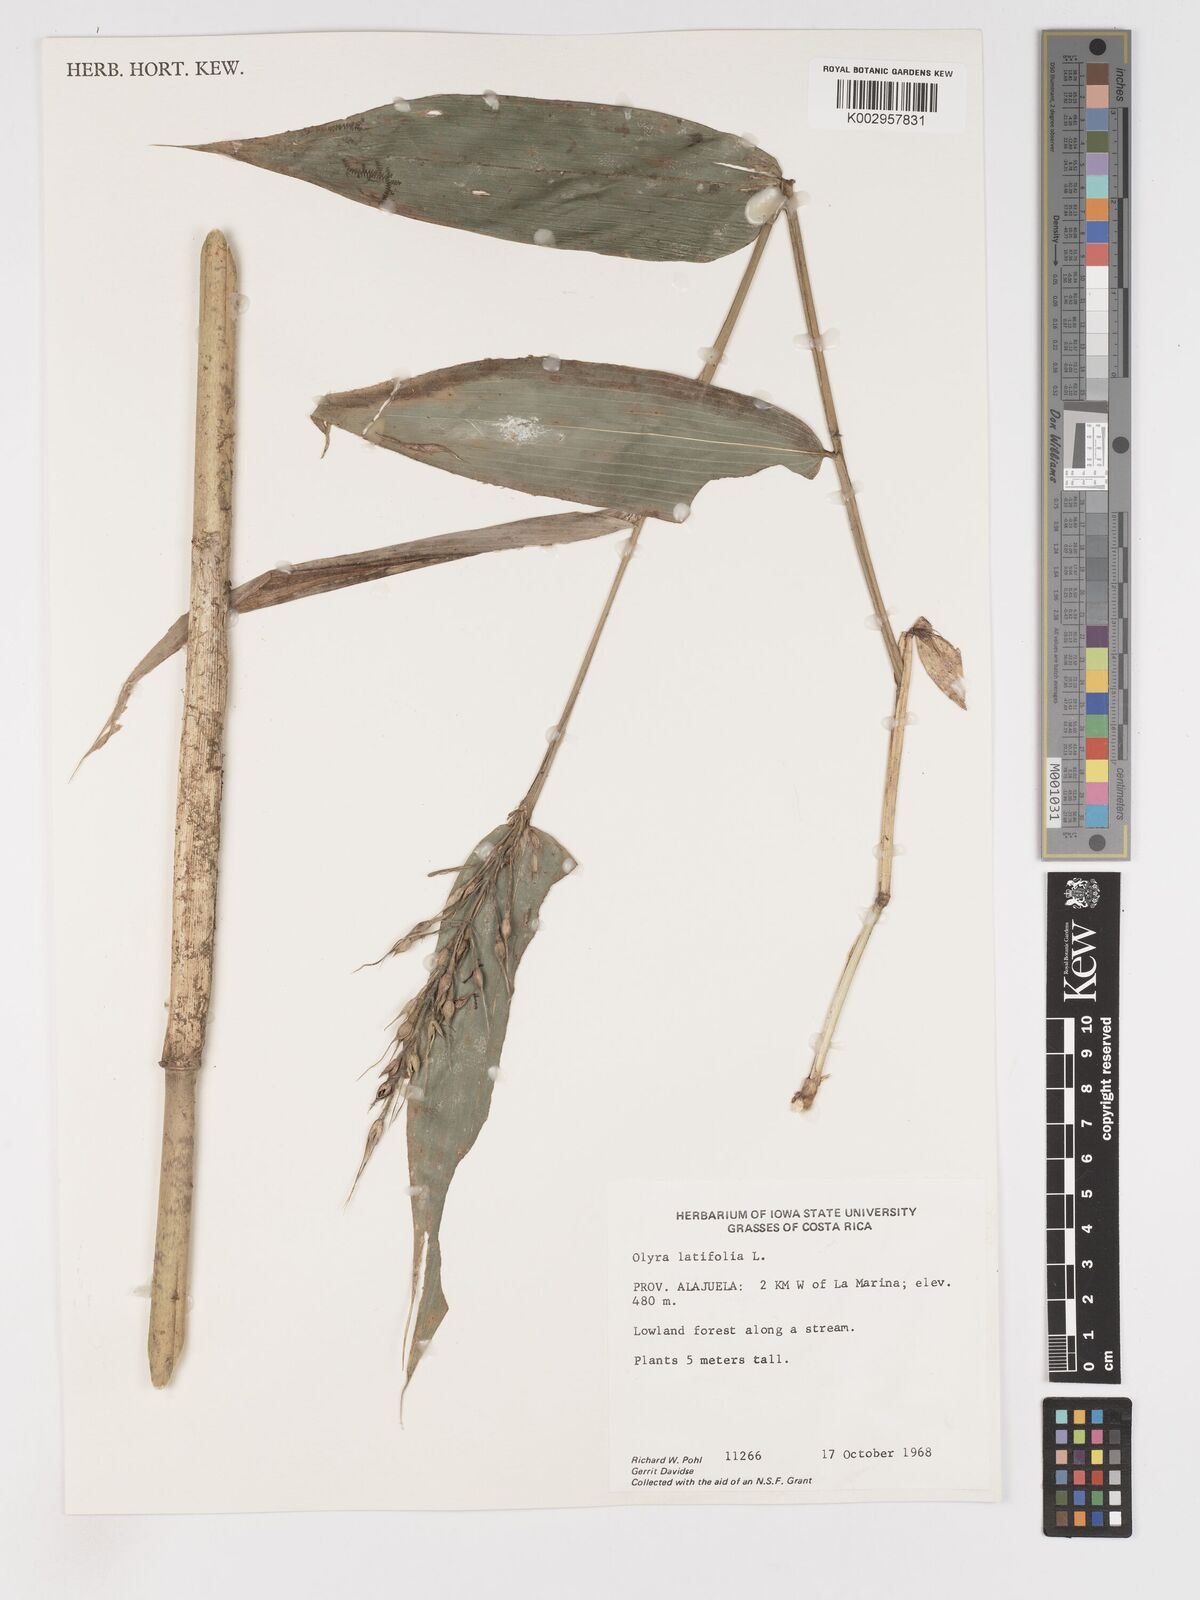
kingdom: Plantae
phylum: Tracheophyta
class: Liliopsida
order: Poales
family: Poaceae
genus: Olyra
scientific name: Olyra latifolia
